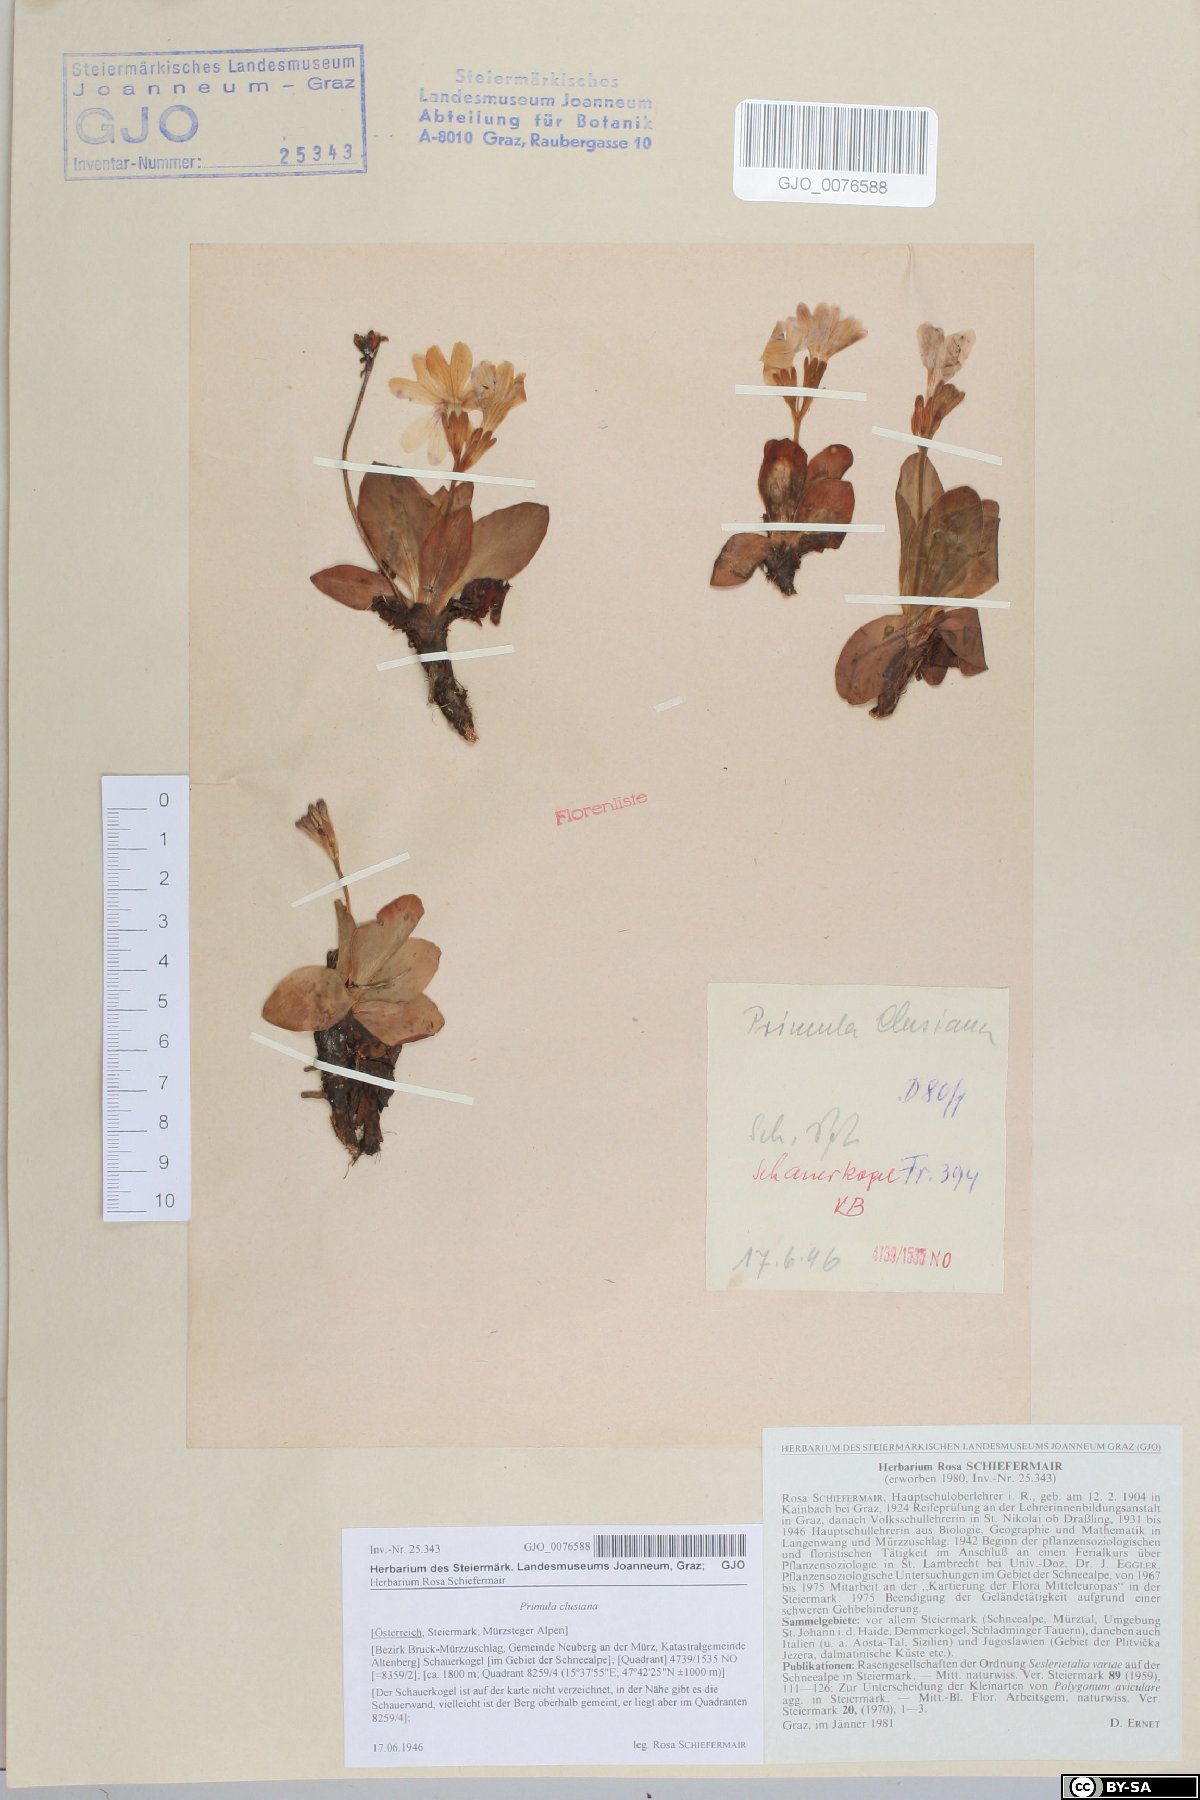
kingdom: Plantae
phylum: Tracheophyta
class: Magnoliopsida
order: Ericales
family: Primulaceae
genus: Primula
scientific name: Primula clusiana
